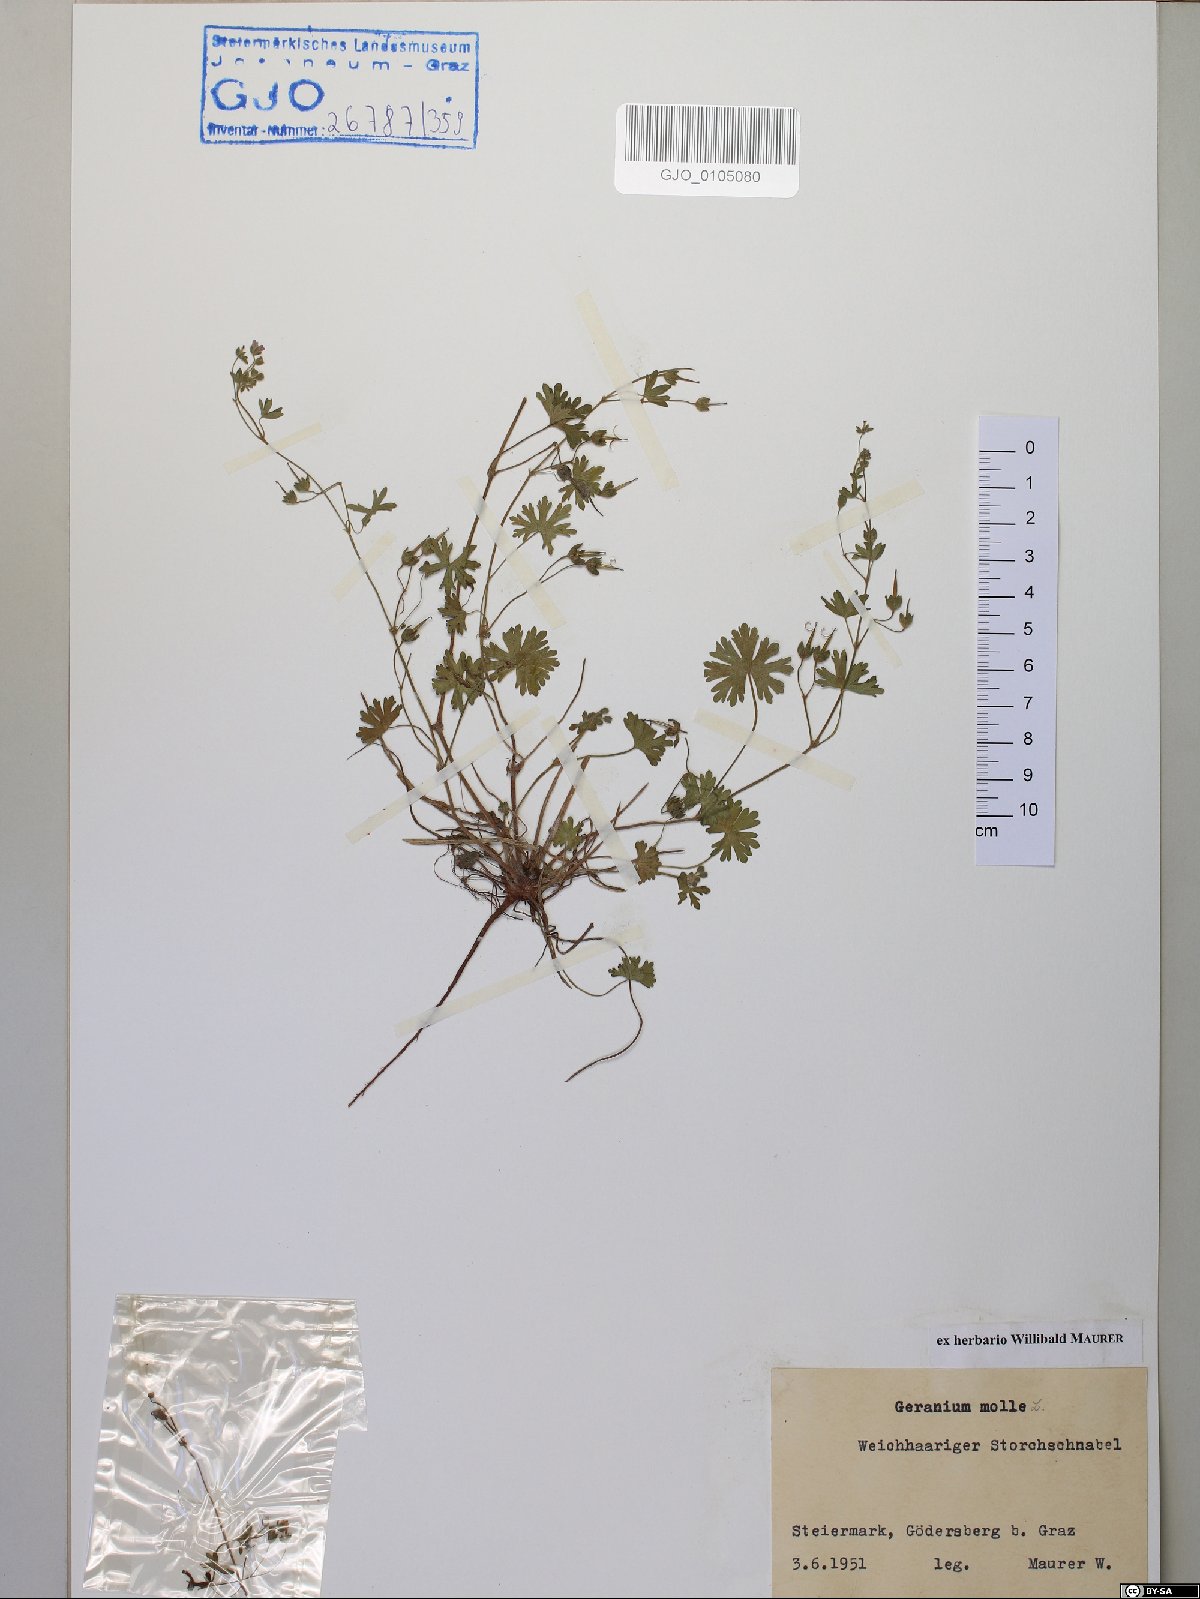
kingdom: Plantae
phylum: Tracheophyta
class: Magnoliopsida
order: Geraniales
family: Geraniaceae
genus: Geranium
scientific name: Geranium molle
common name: Dove's-foot crane's-bill
